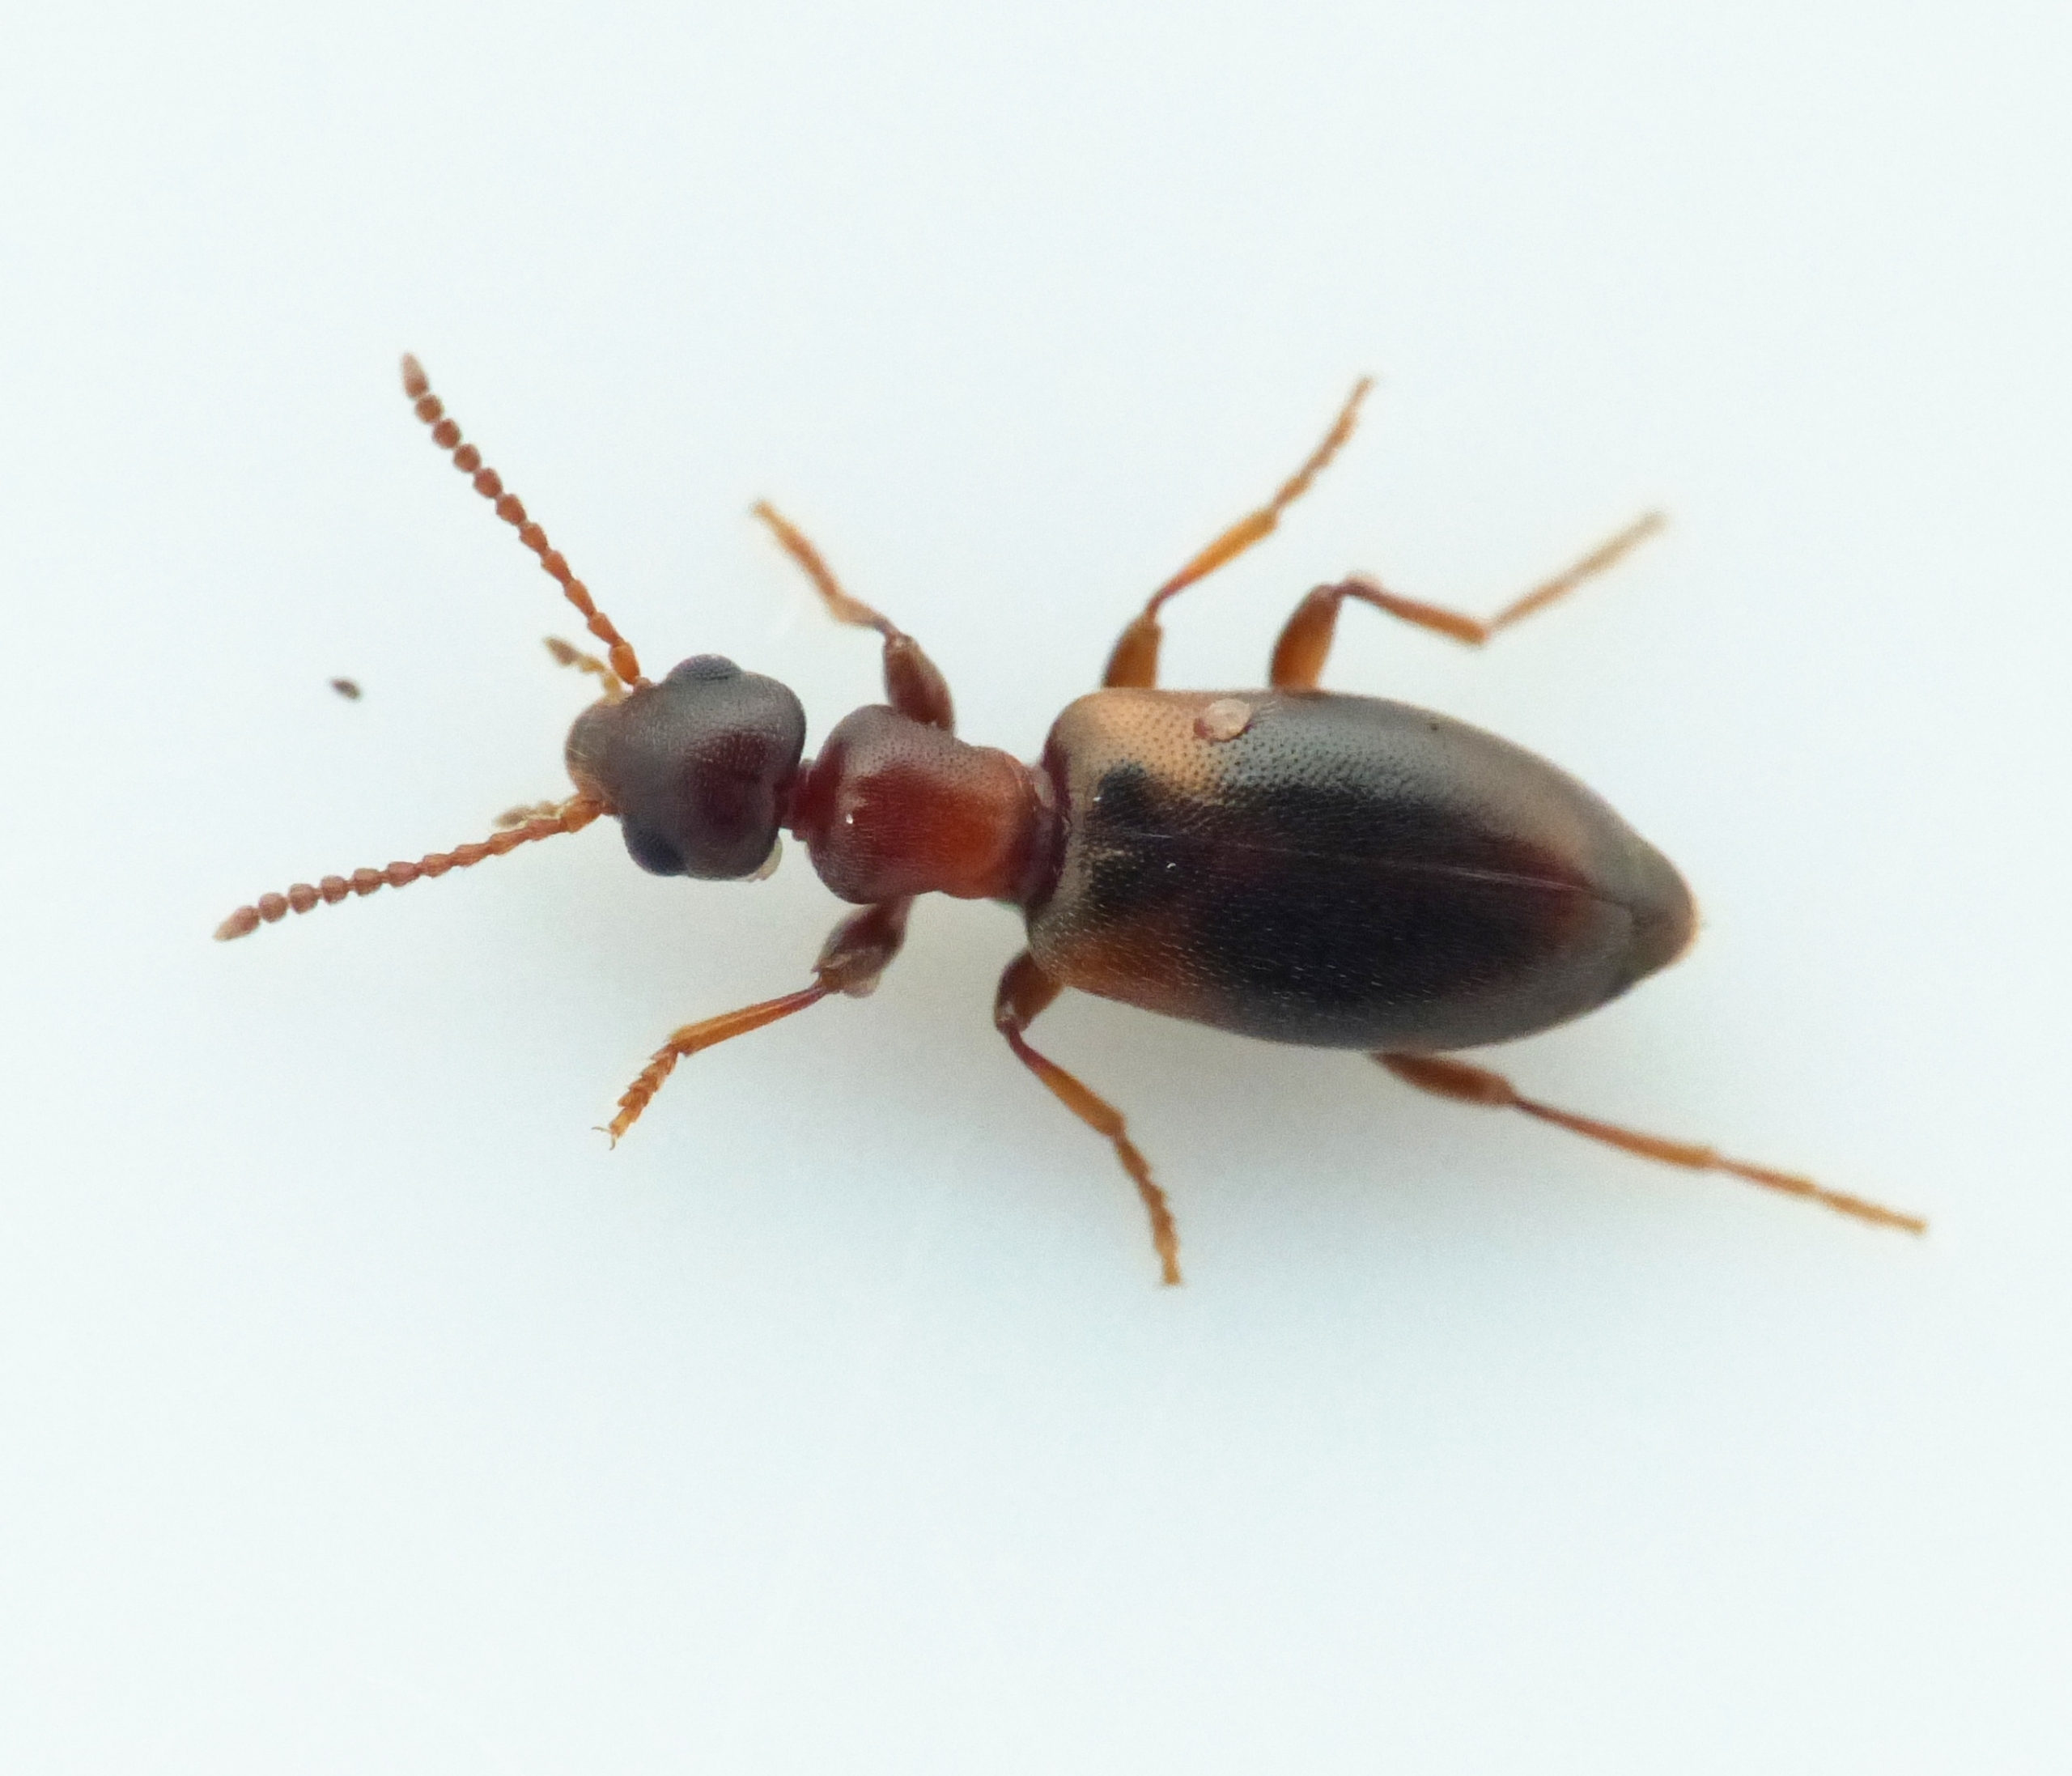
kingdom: Animalia
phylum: Arthropoda
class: Insecta
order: Coleoptera
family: Anthicidae
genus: Omonadus
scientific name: Omonadus floralis
